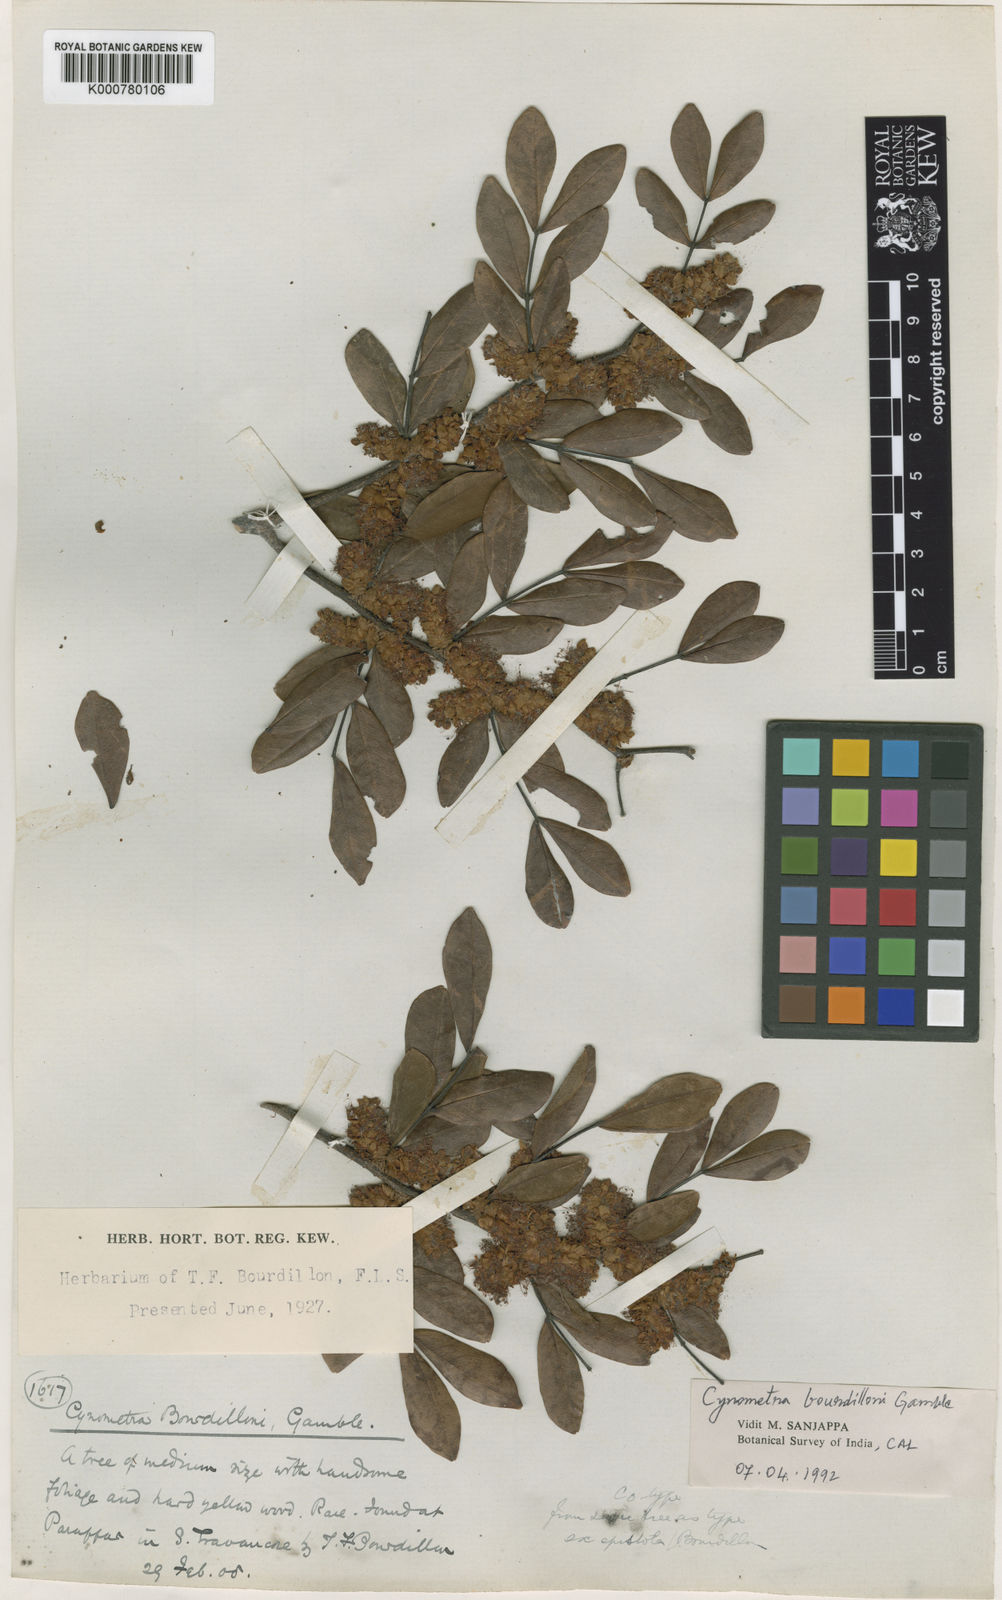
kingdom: Plantae
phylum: Tracheophyta
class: Magnoliopsida
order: Fabales
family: Fabaceae
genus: Cynometra
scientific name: Cynometra bourdillonii
